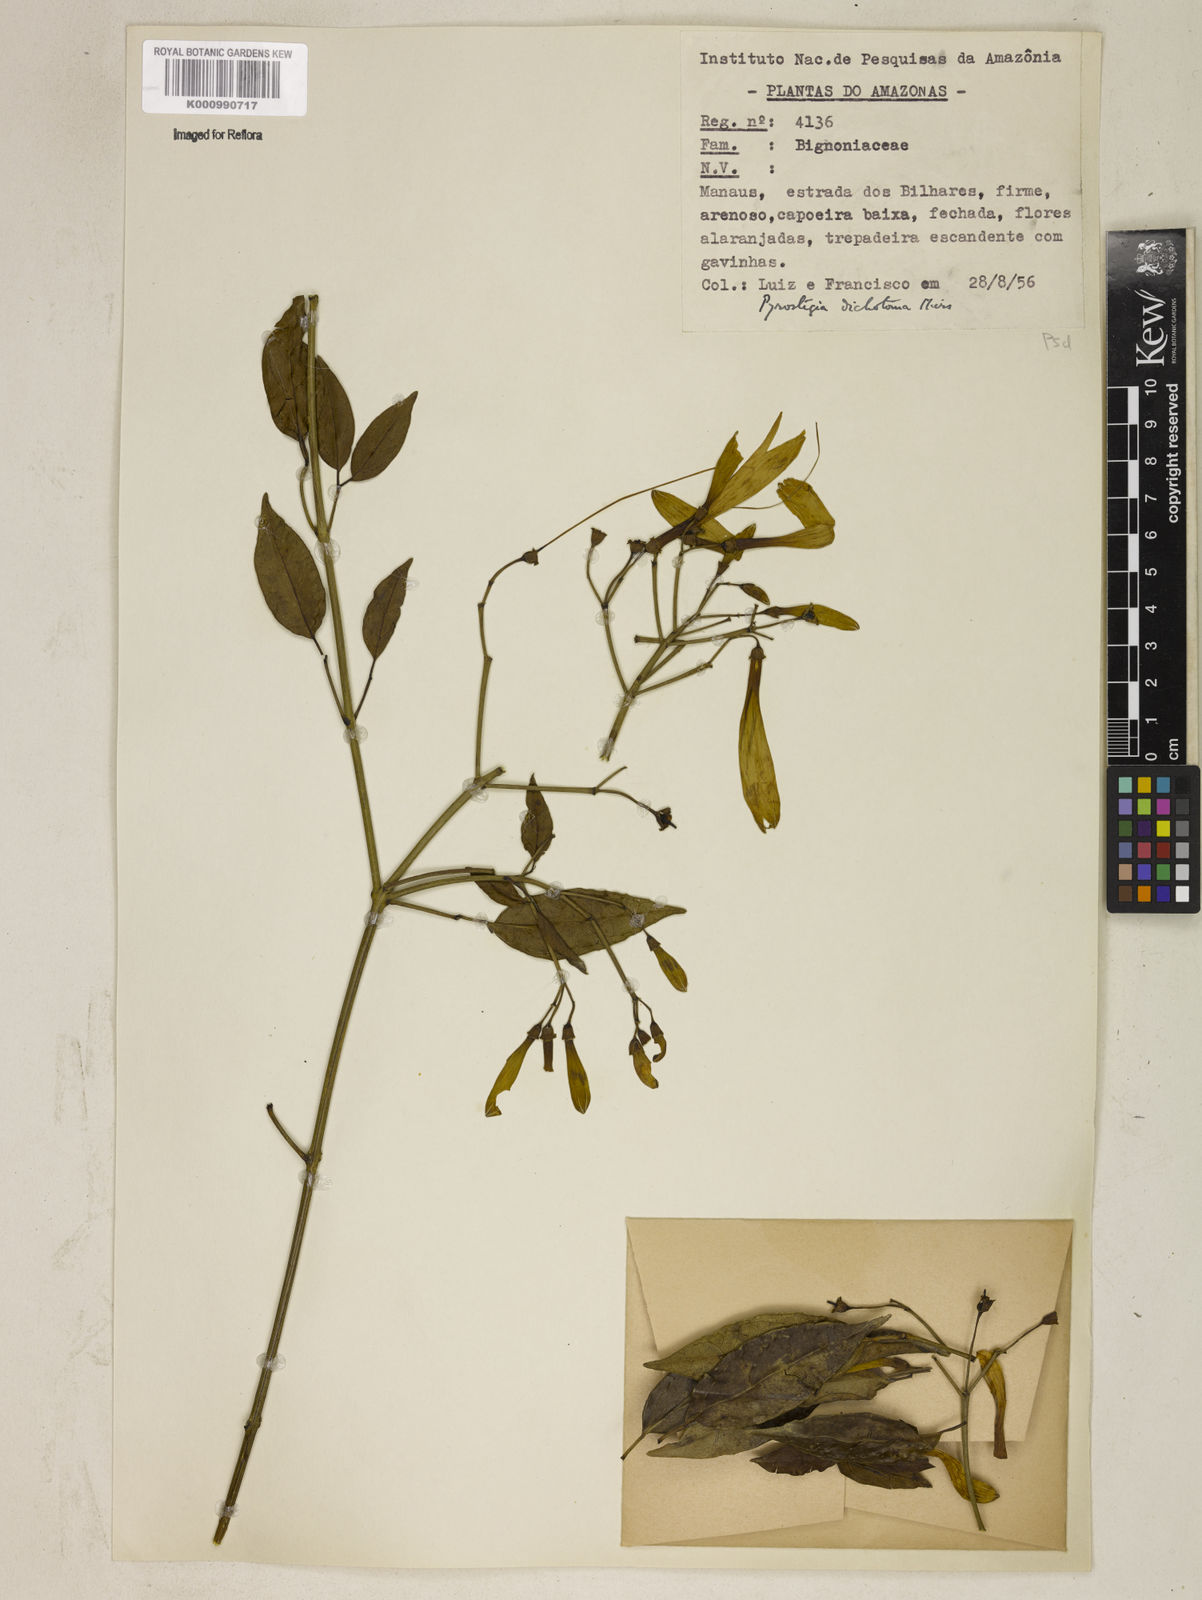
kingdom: Plantae
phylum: Tracheophyta
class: Magnoliopsida
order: Lamiales
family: Bignoniaceae
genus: Pyrostegia
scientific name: Pyrostegia
